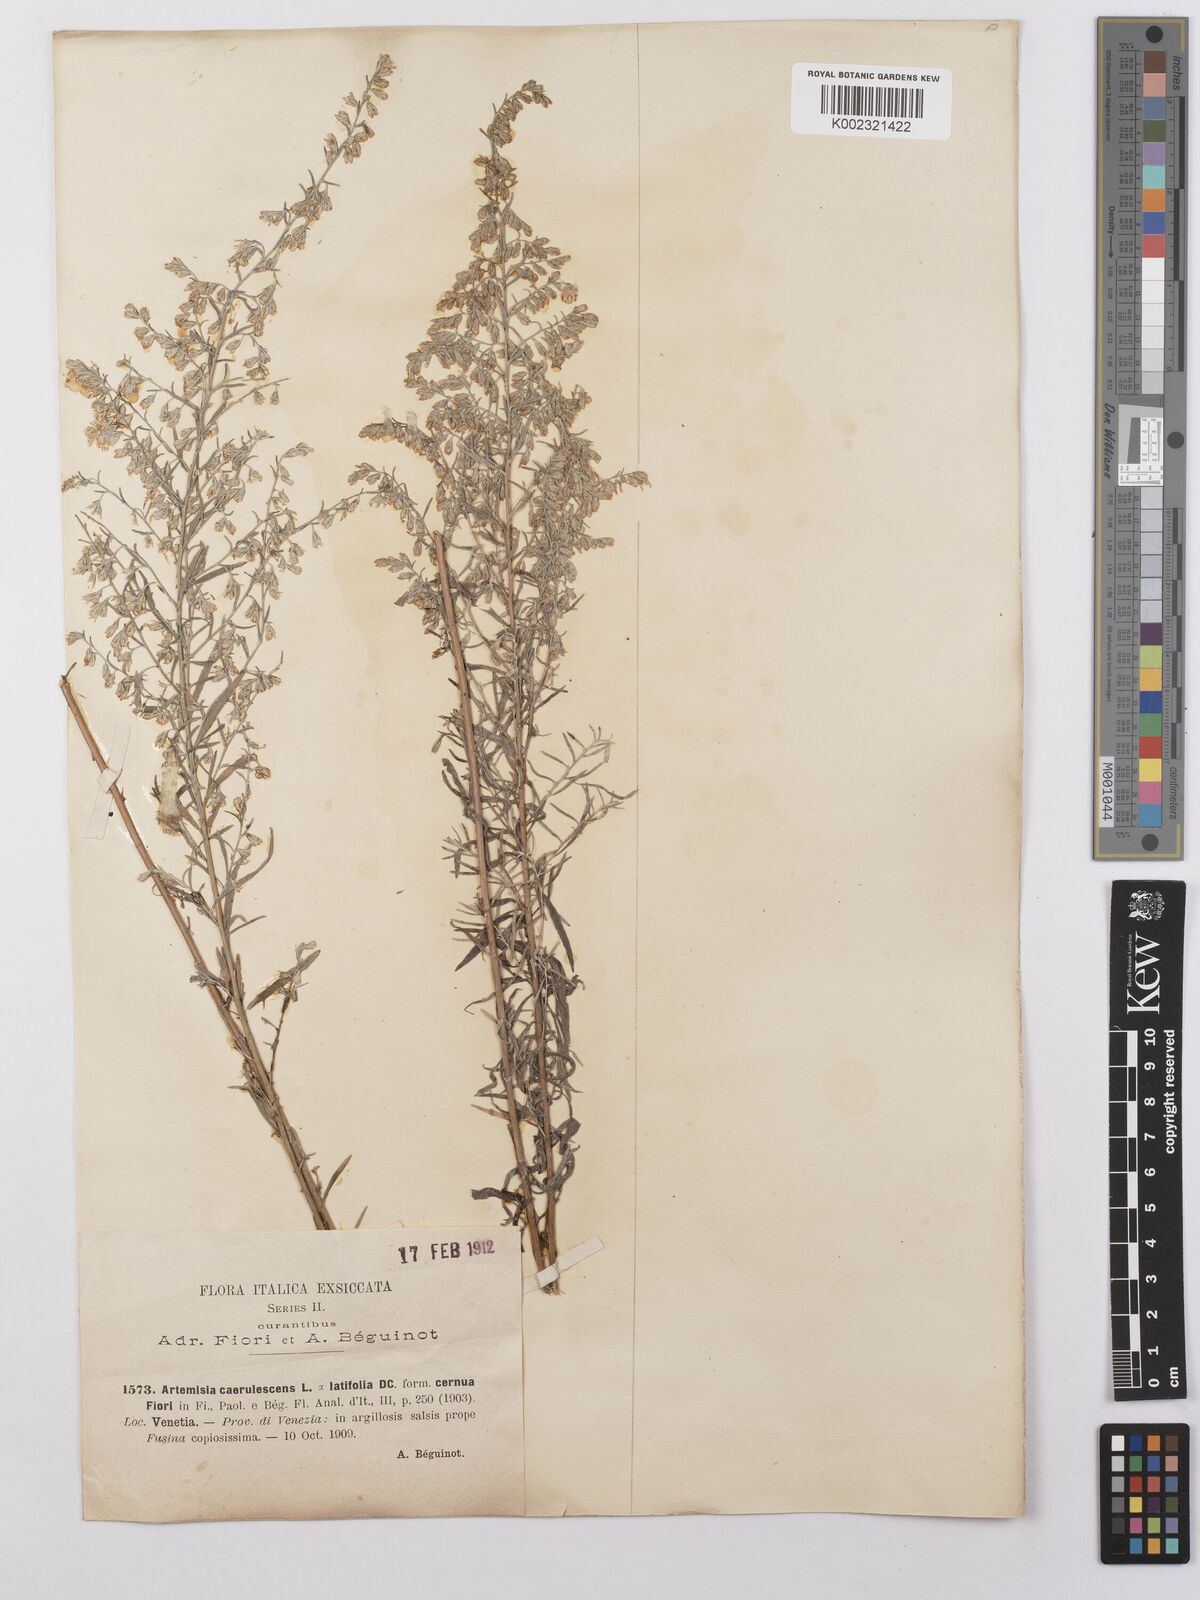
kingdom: Plantae
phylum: Tracheophyta
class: Magnoliopsida
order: Asterales
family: Asteraceae
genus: Artemisia
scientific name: Artemisia caerulescens
